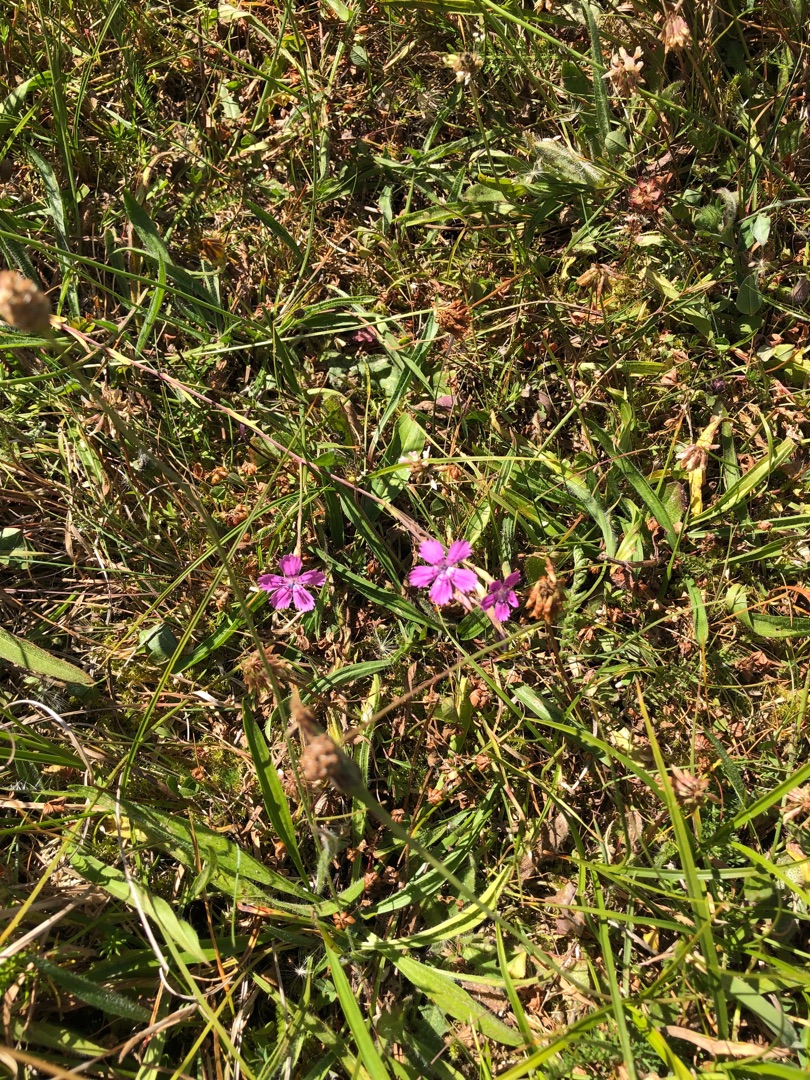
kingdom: Plantae
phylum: Tracheophyta
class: Magnoliopsida
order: Caryophyllales
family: Caryophyllaceae
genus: Dianthus
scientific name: Dianthus deltoides
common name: Bakke-nellike
